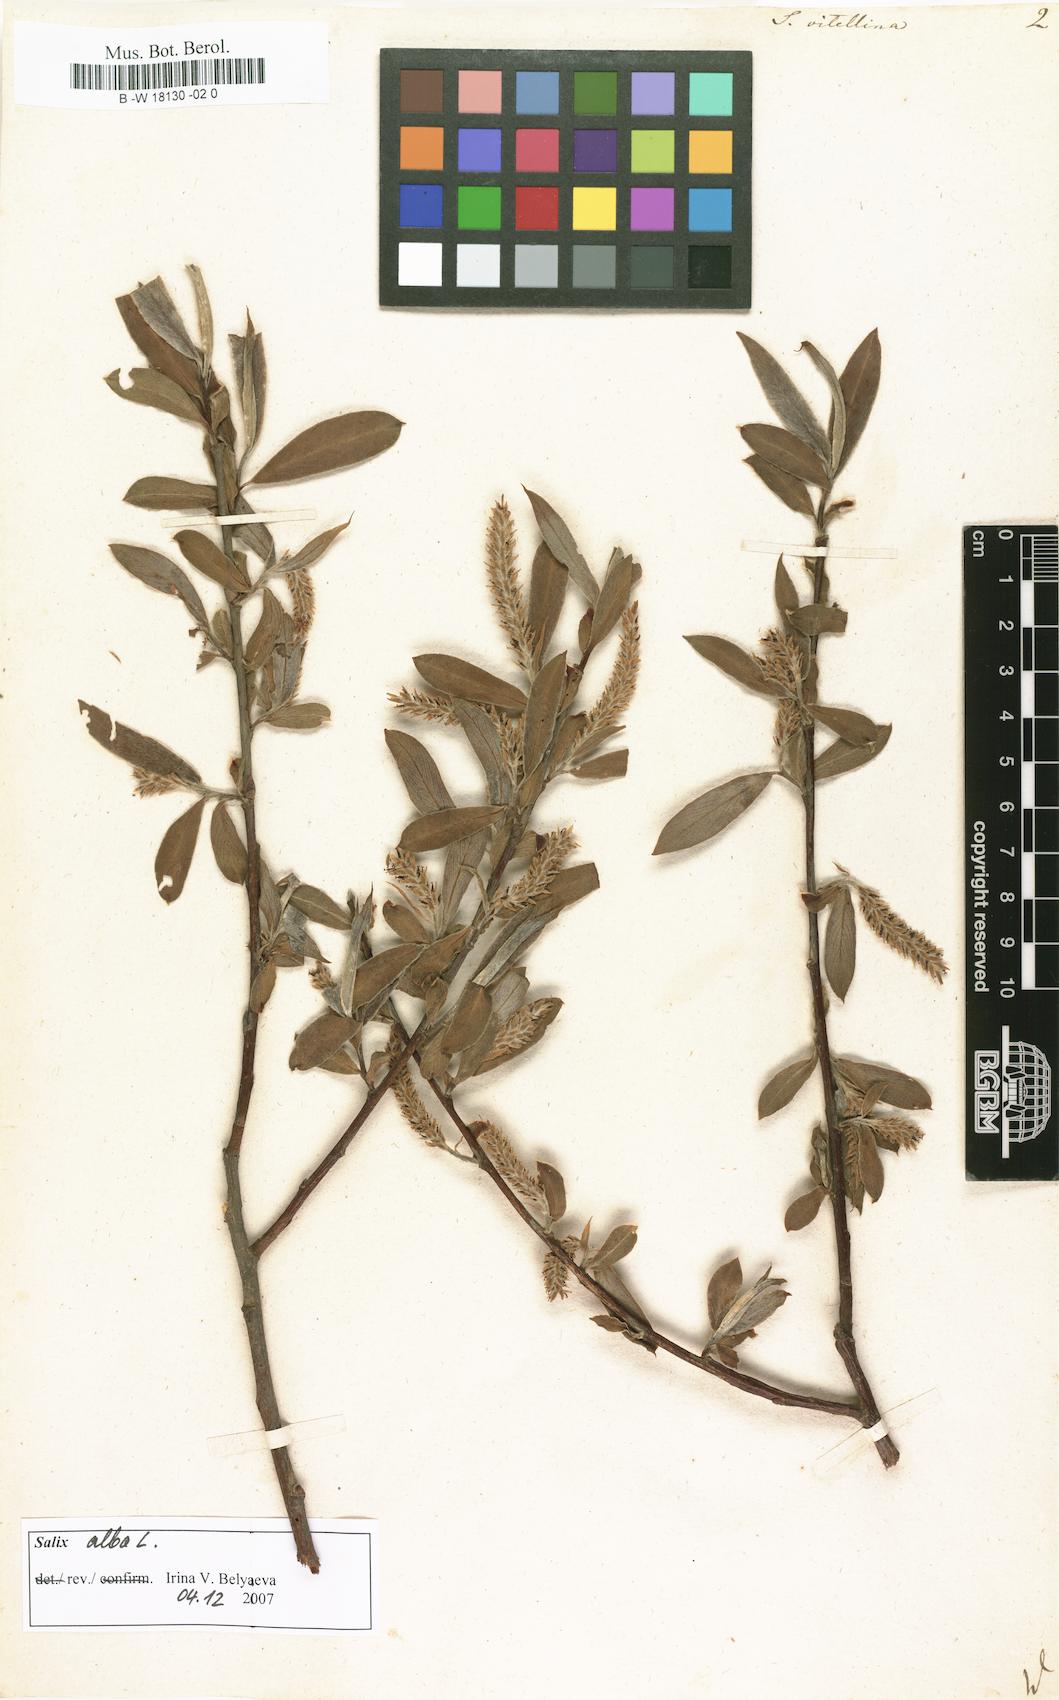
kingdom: Plantae
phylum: Tracheophyta
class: Magnoliopsida
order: Malpighiales
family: Salicaceae
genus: Salix
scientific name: Salix alba
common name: White willow
